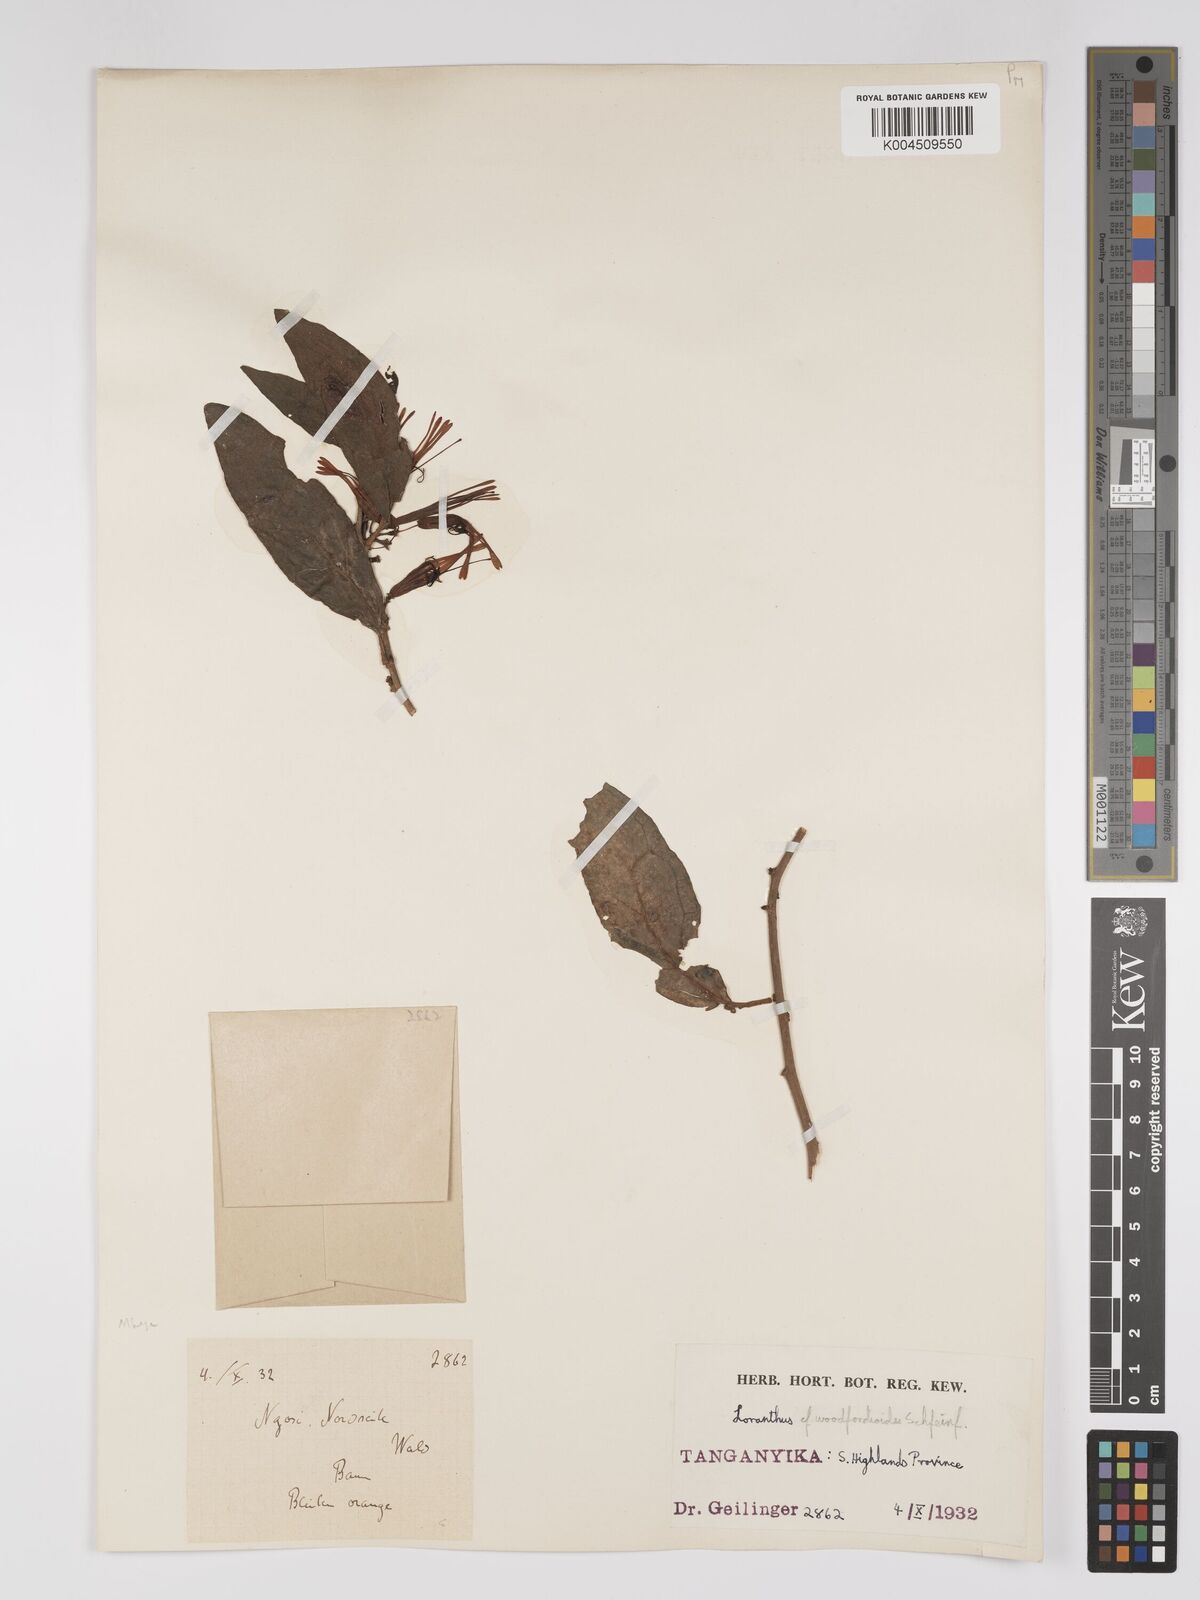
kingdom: Plantae
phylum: Tracheophyta
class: Magnoliopsida
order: Santalales
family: Loranthaceae
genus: Englerina
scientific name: Englerina inaequilatera
